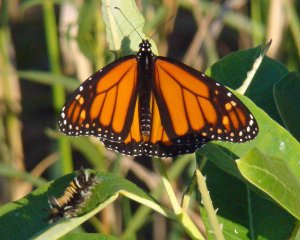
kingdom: Animalia
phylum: Arthropoda
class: Insecta
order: Lepidoptera
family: Nymphalidae
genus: Danaus
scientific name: Danaus plexippus
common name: Monarch
